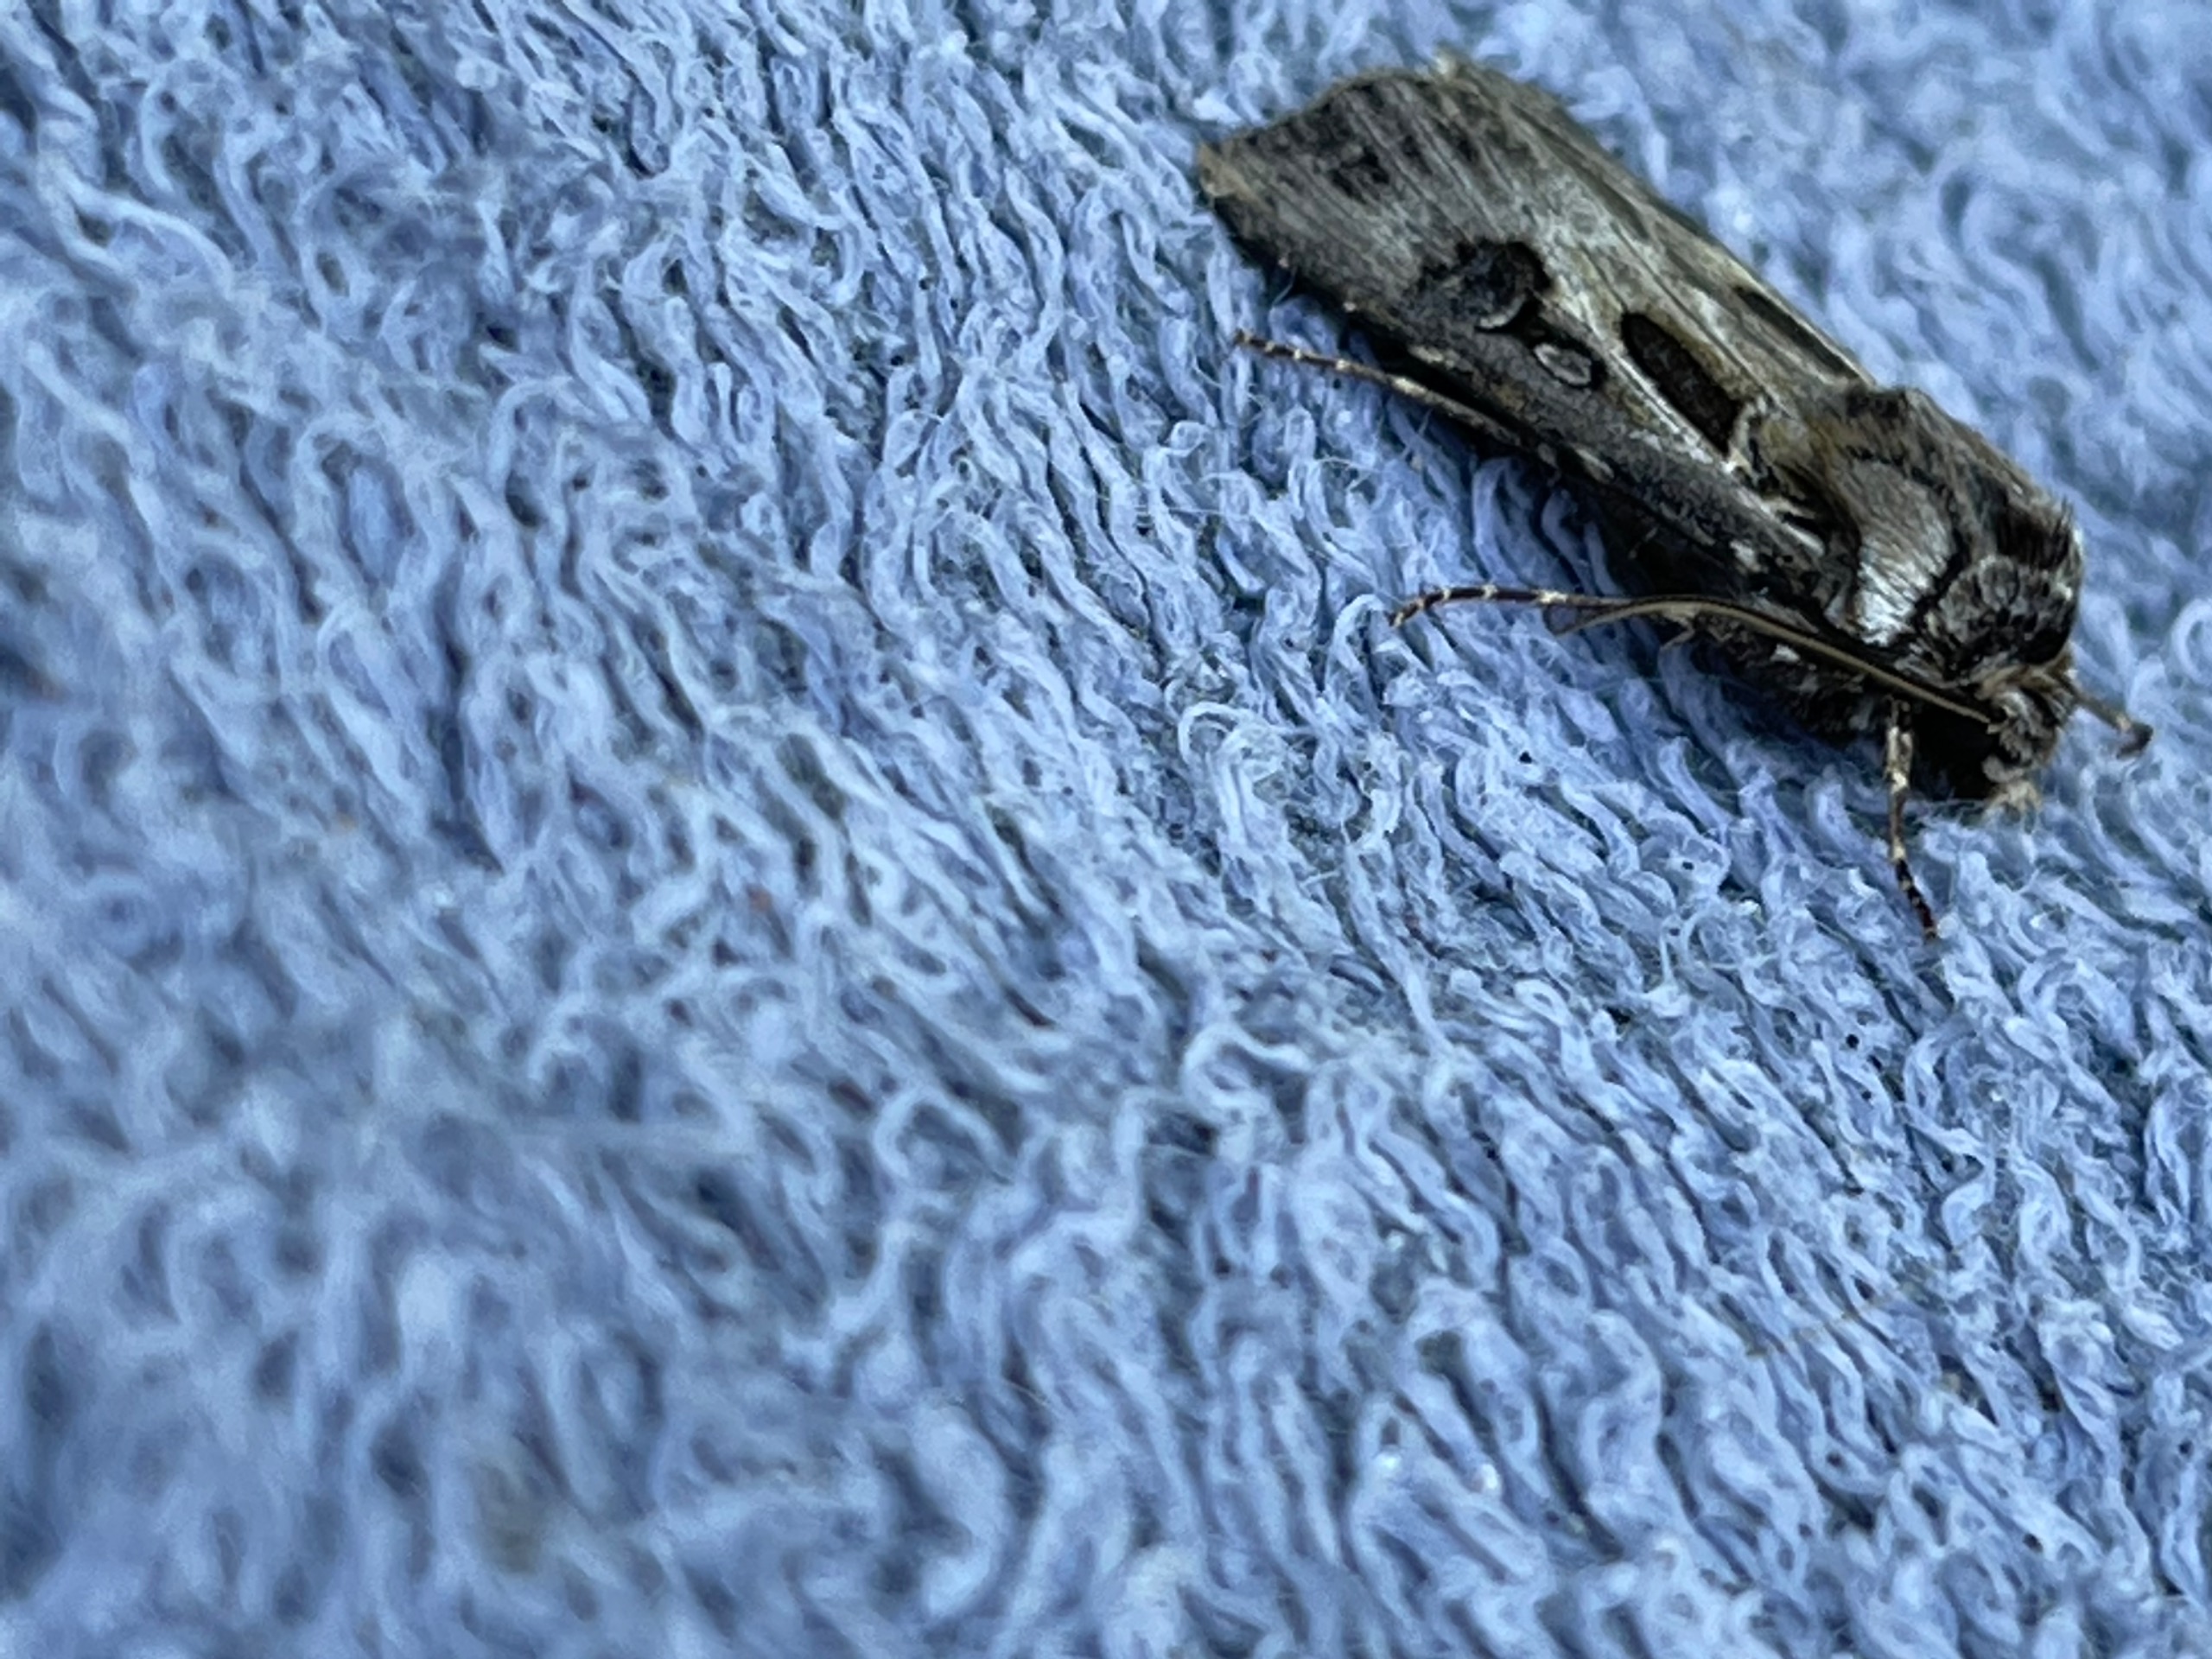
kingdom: Animalia
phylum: Arthropoda
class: Insecta
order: Lepidoptera
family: Noctuidae
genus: Agrotis
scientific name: Agrotis vestigialis
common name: Strand-landmand
